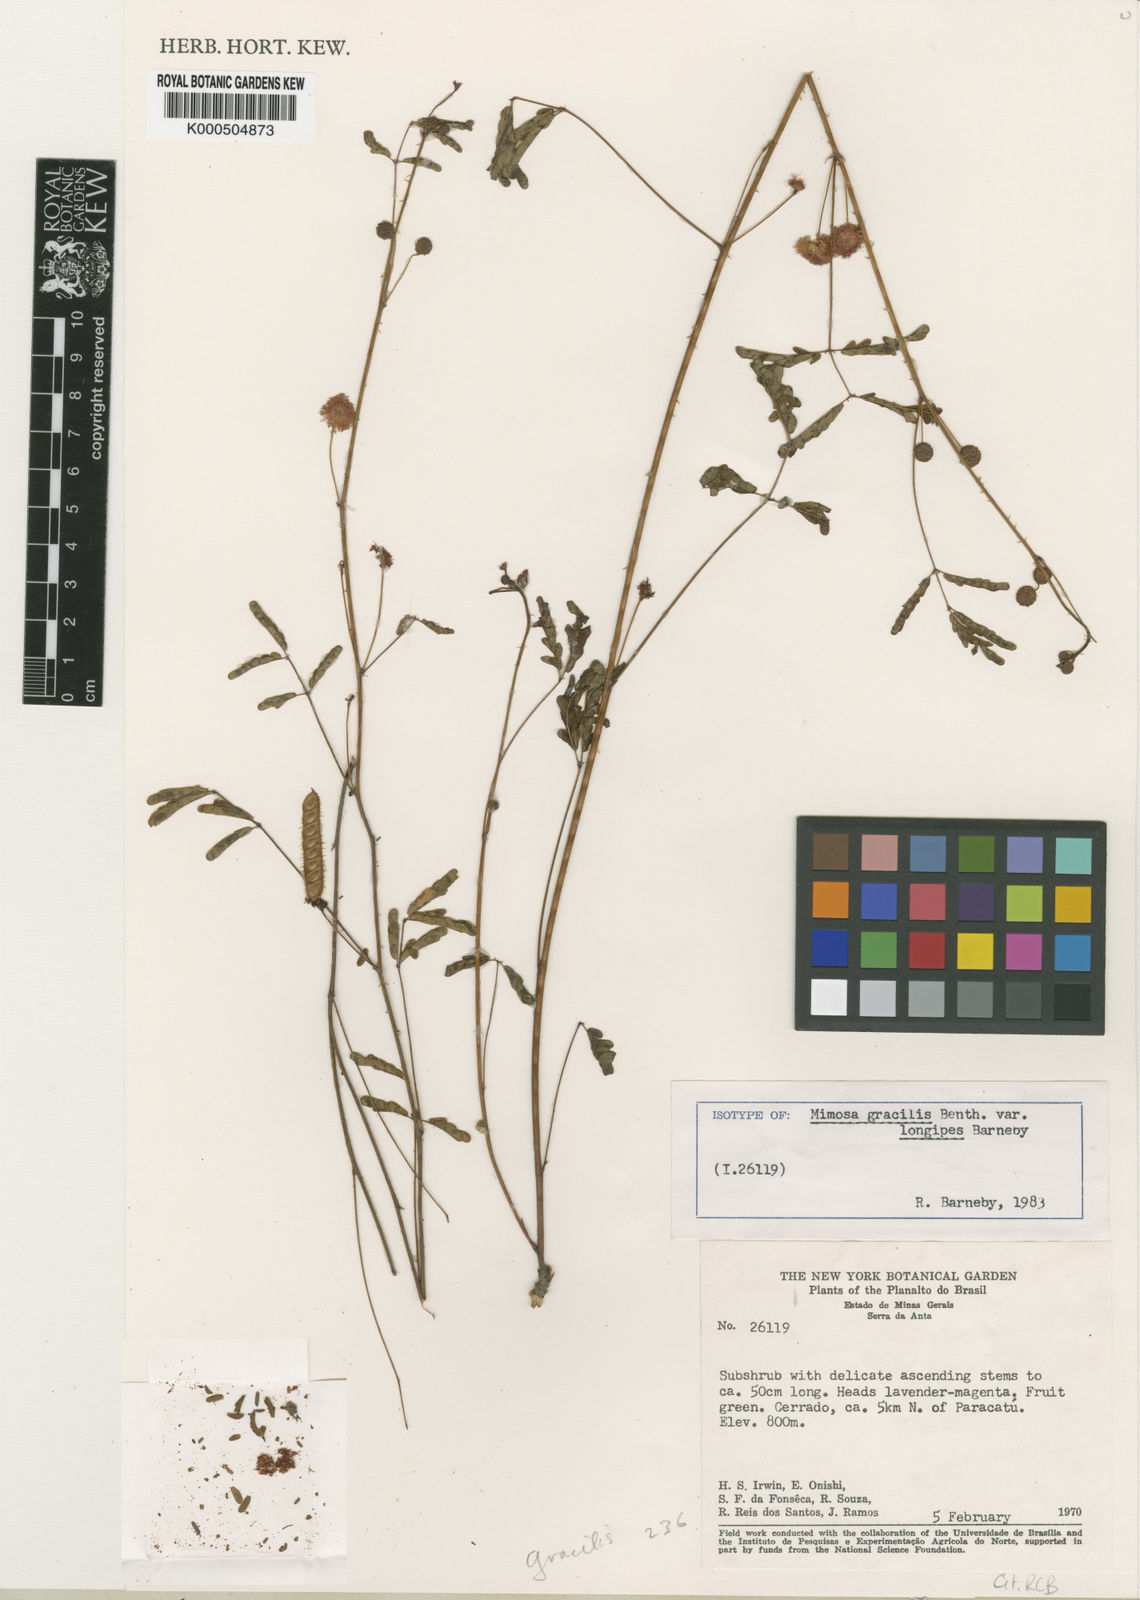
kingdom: Plantae
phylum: Tracheophyta
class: Magnoliopsida
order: Fabales
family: Fabaceae
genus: Mimosa
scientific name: Mimosa gracilis
